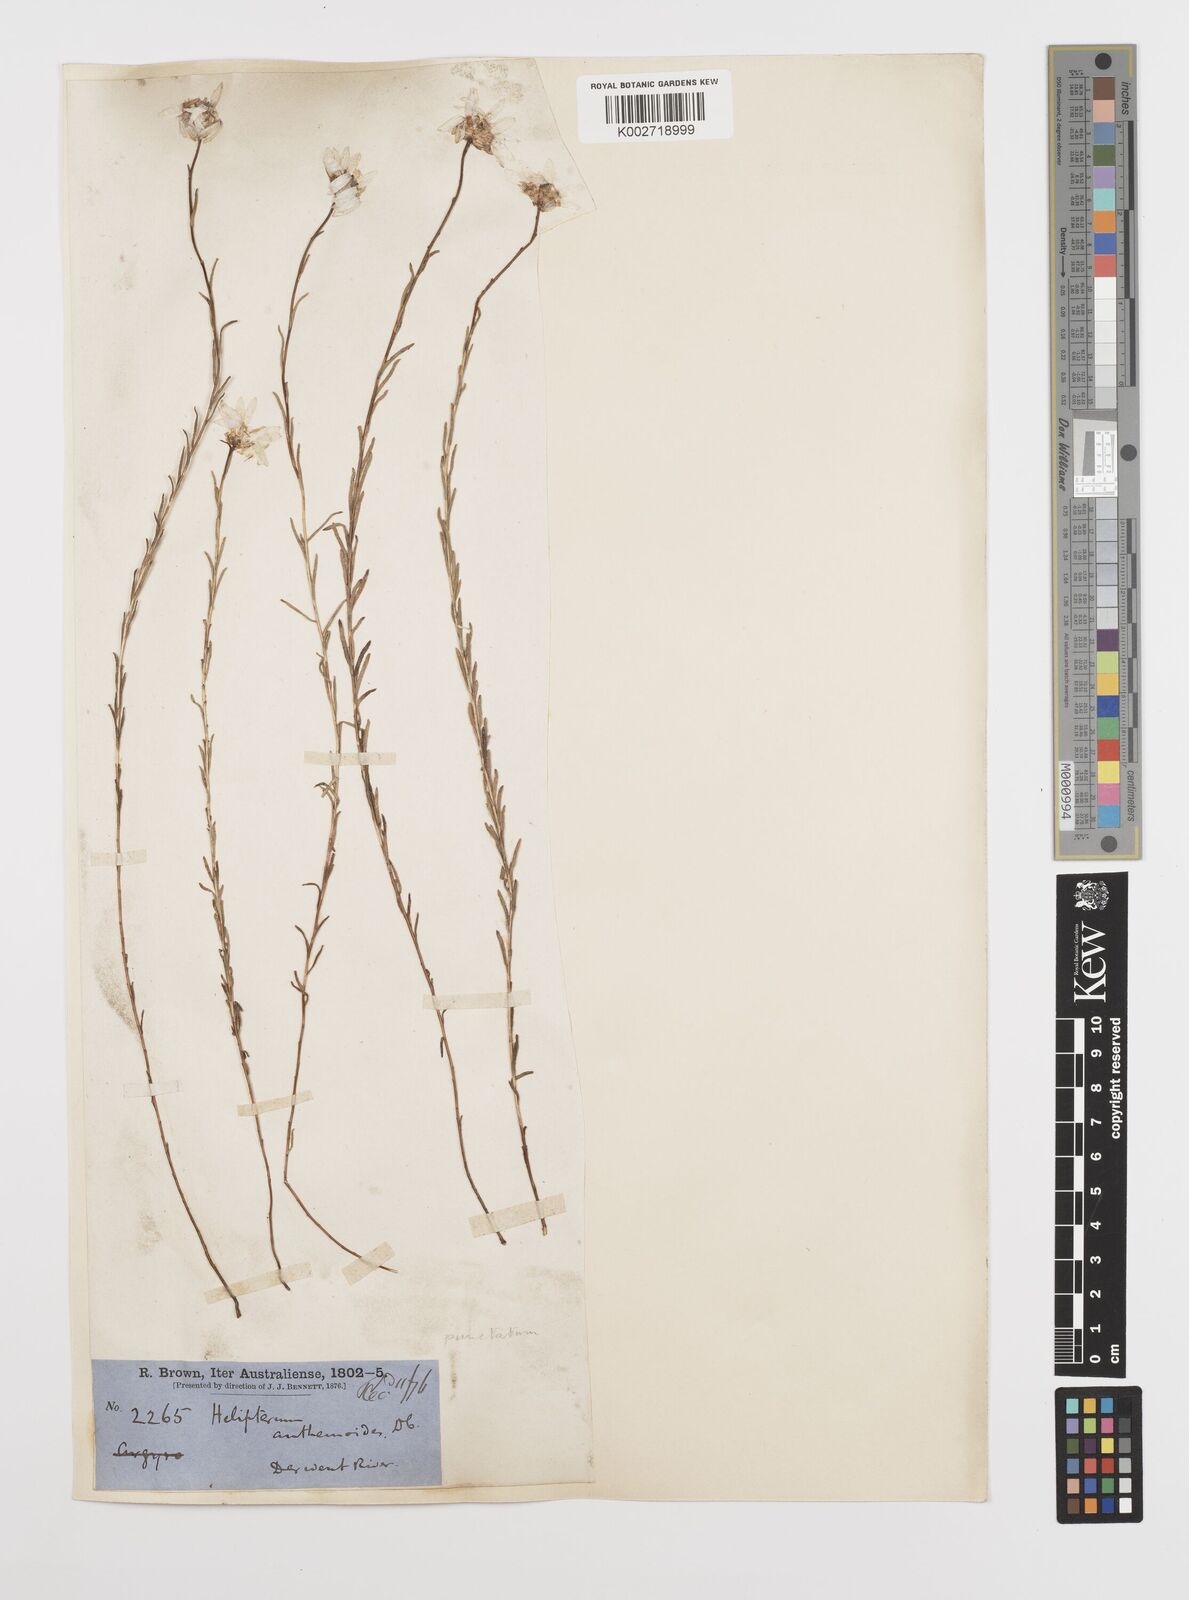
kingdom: Plantae
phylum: Tracheophyta
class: Magnoliopsida
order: Asterales
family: Asteraceae
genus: Rhodanthe
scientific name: Rhodanthe anthemoides
